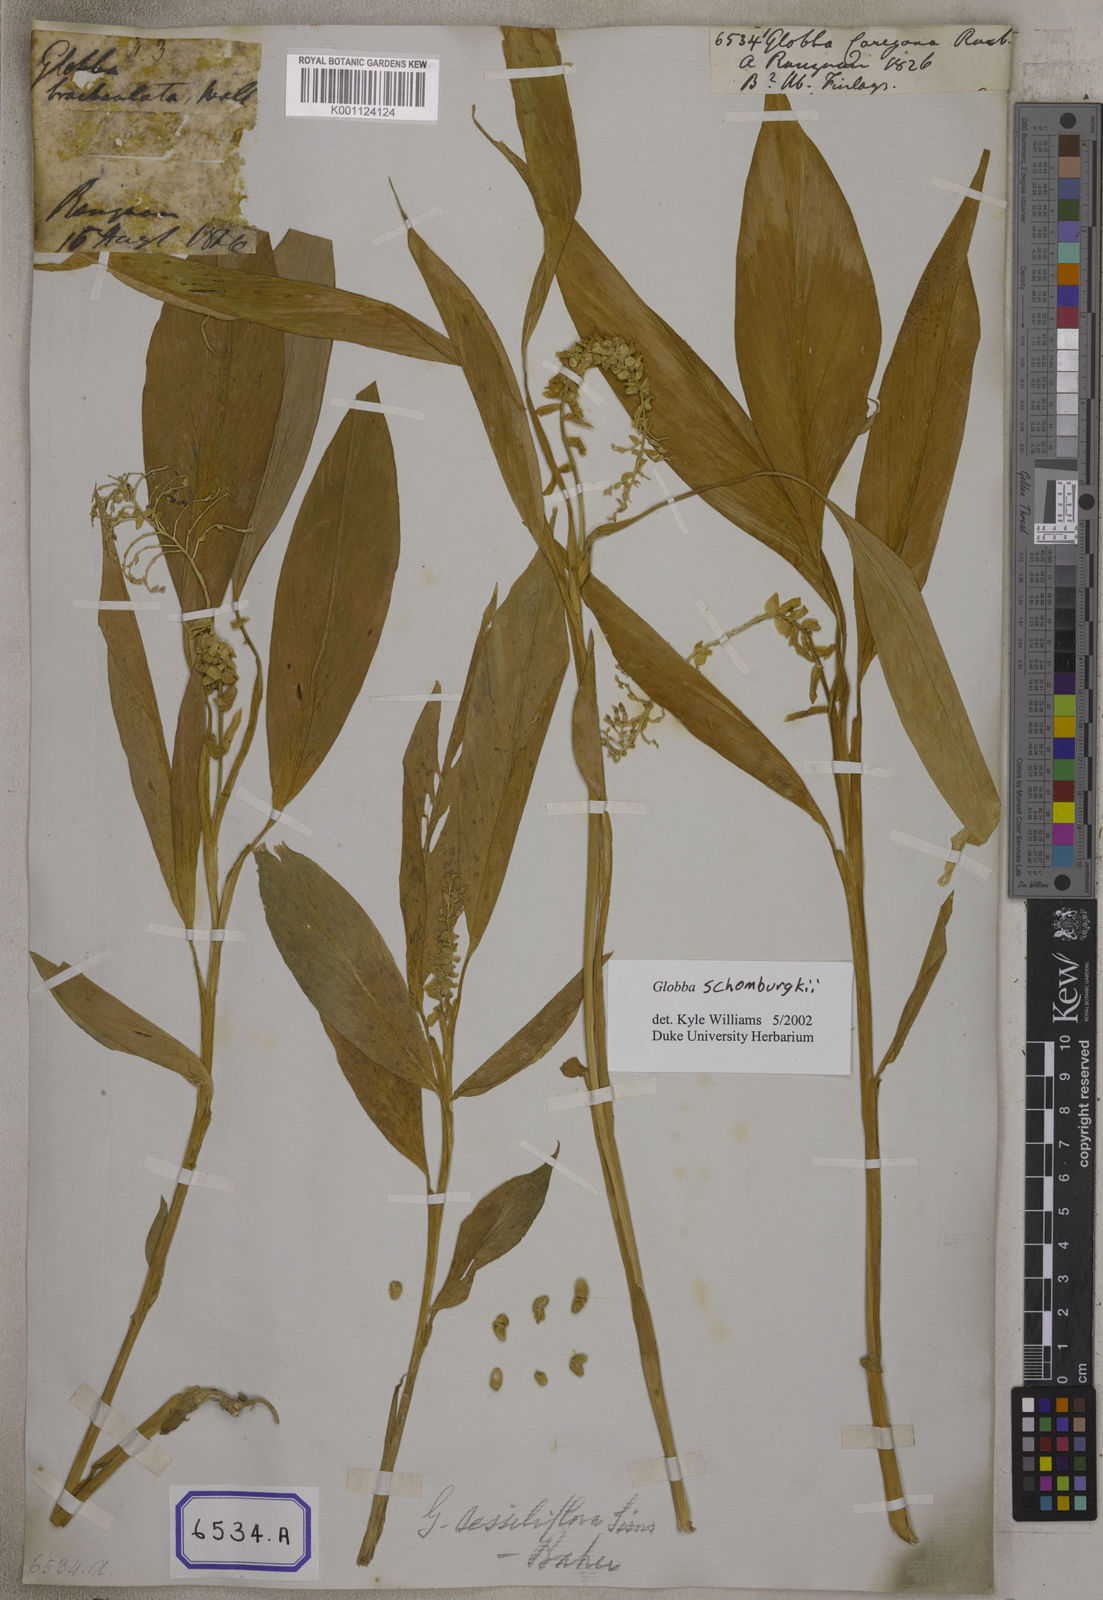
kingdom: Plantae
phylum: Tracheophyta
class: Liliopsida
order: Zingiberales
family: Zingiberaceae
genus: Globba
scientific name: Globba sessiliflora
